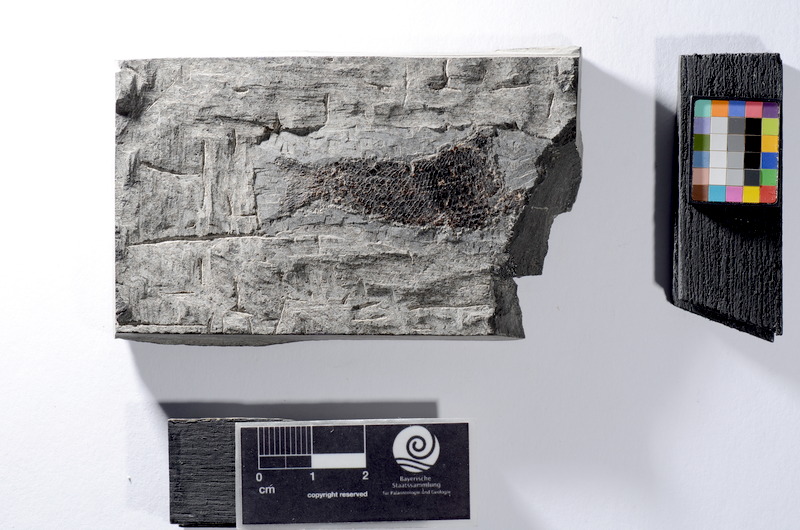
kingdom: Animalia
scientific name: Animalia
